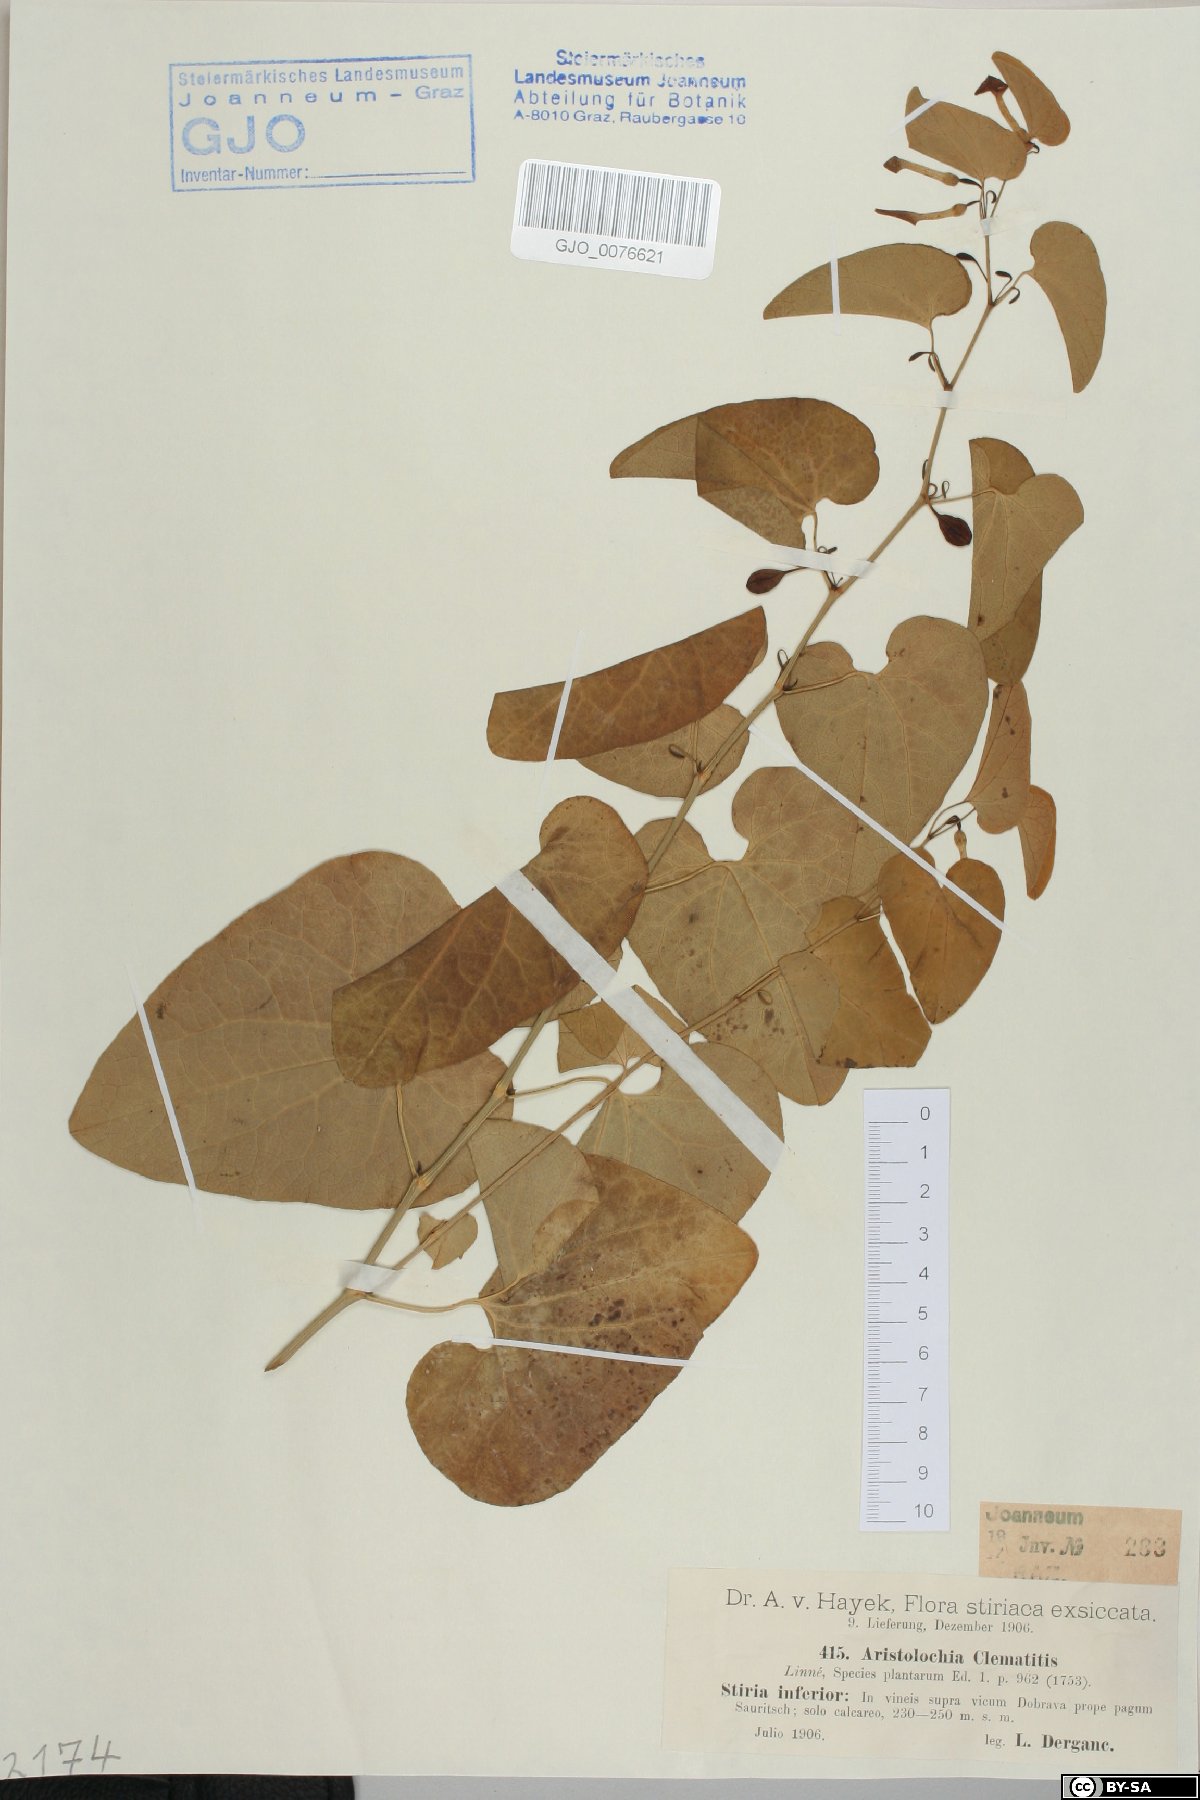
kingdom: Plantae
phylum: Tracheophyta
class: Magnoliopsida
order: Piperales
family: Aristolochiaceae
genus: Aristolochia
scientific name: Aristolochia clematitis
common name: Birthwort
